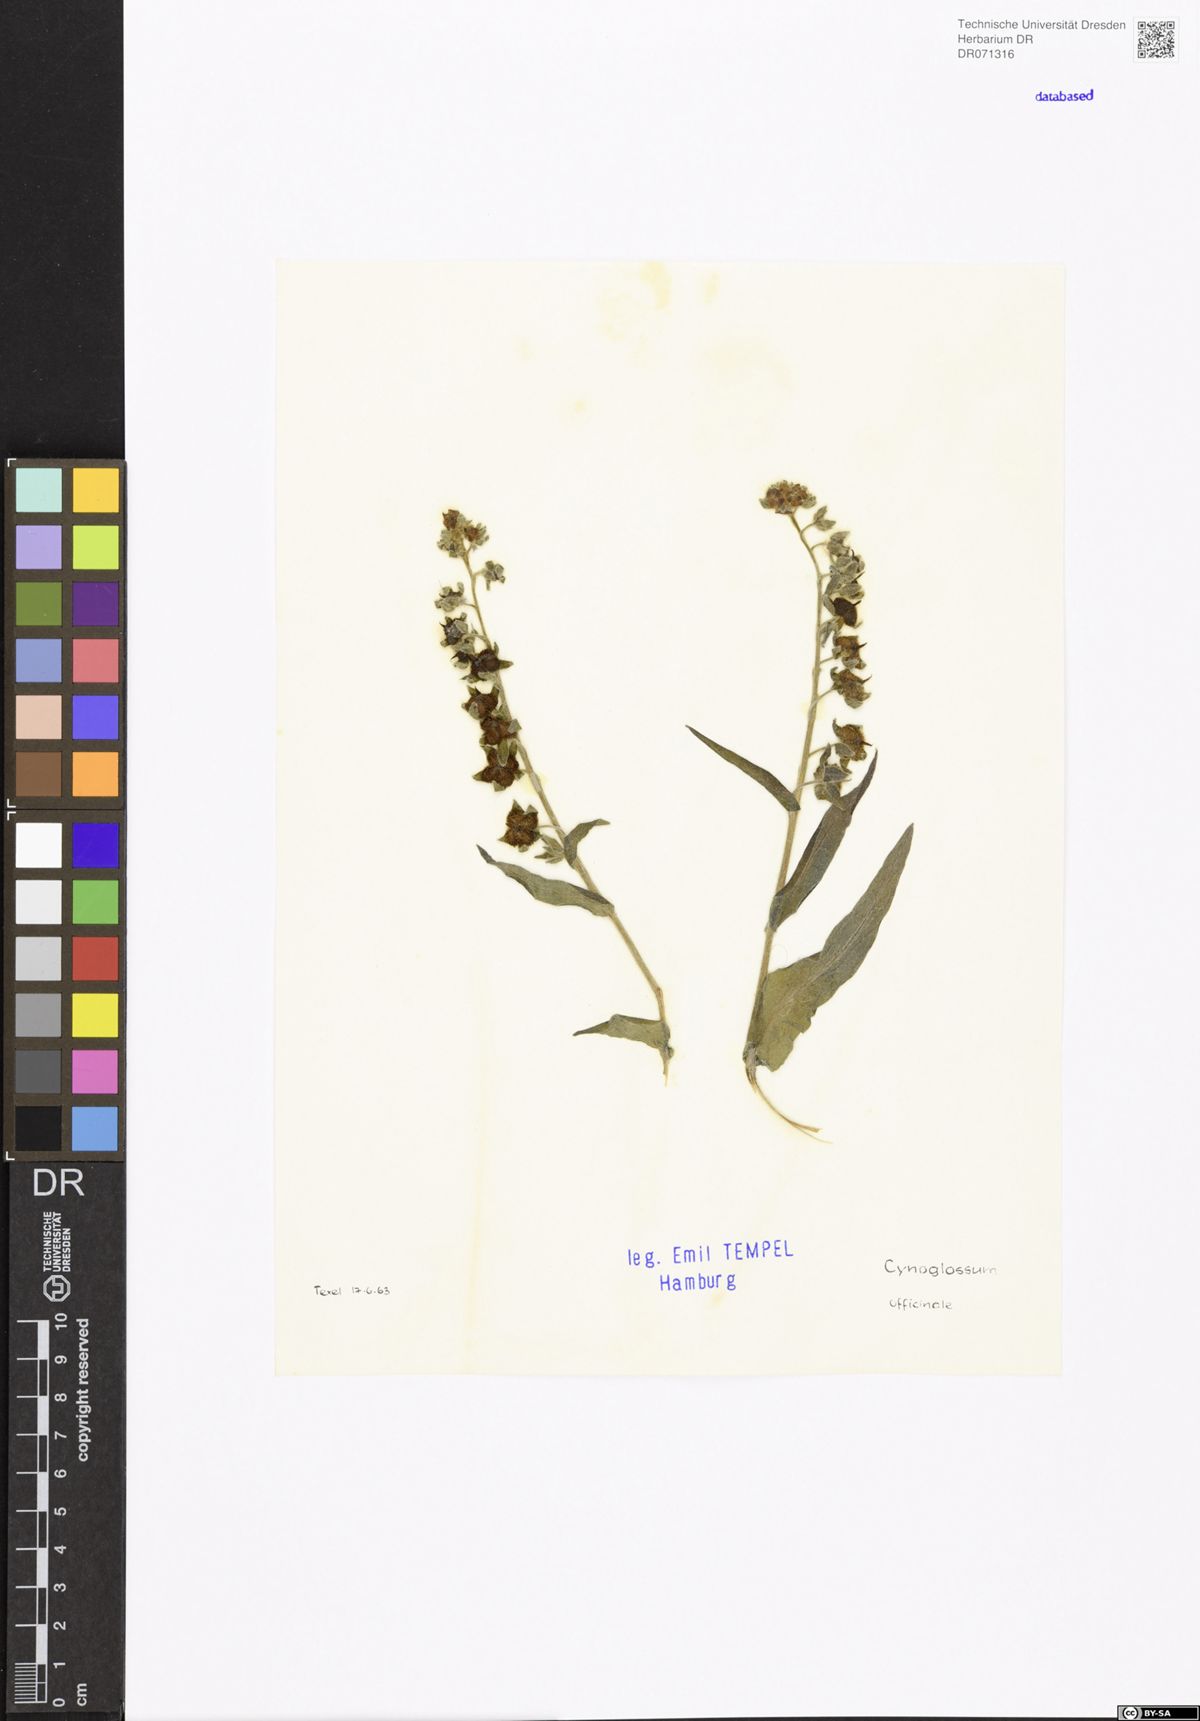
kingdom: Plantae
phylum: Tracheophyta
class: Magnoliopsida
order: Boraginales
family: Boraginaceae
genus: Cynoglossum
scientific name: Cynoglossum officinale
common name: Hound's-tongue
